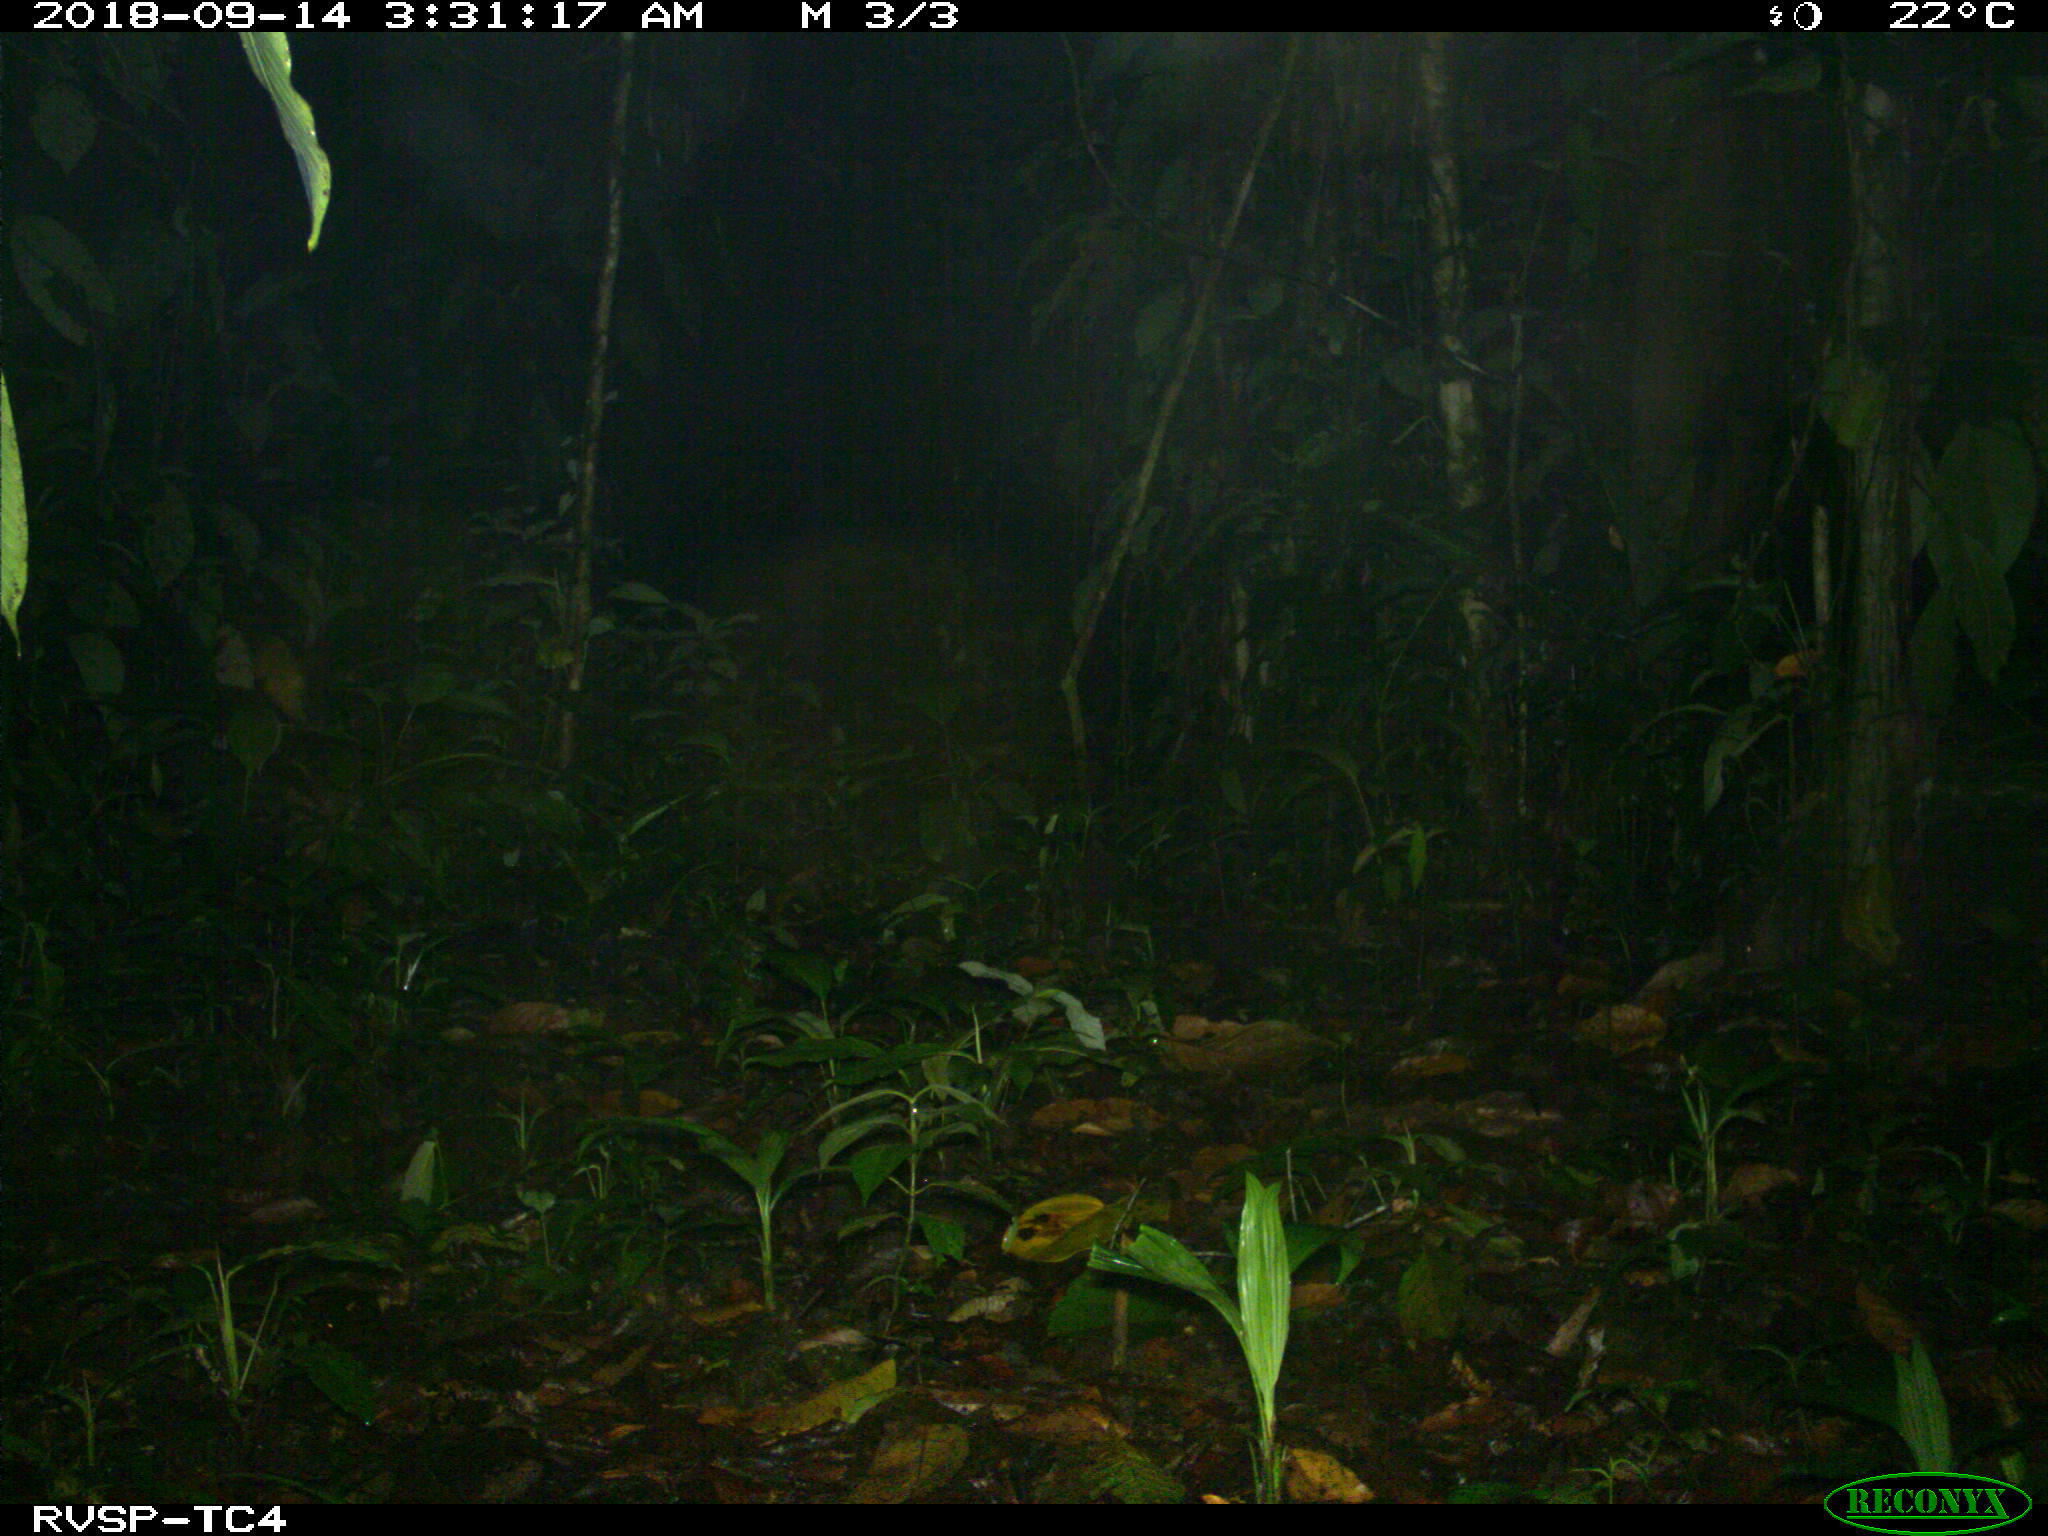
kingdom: Animalia
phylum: Chordata
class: Mammalia
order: Rodentia
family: Cuniculidae
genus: Cuniculus
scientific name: Cuniculus paca
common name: Lowland paca
